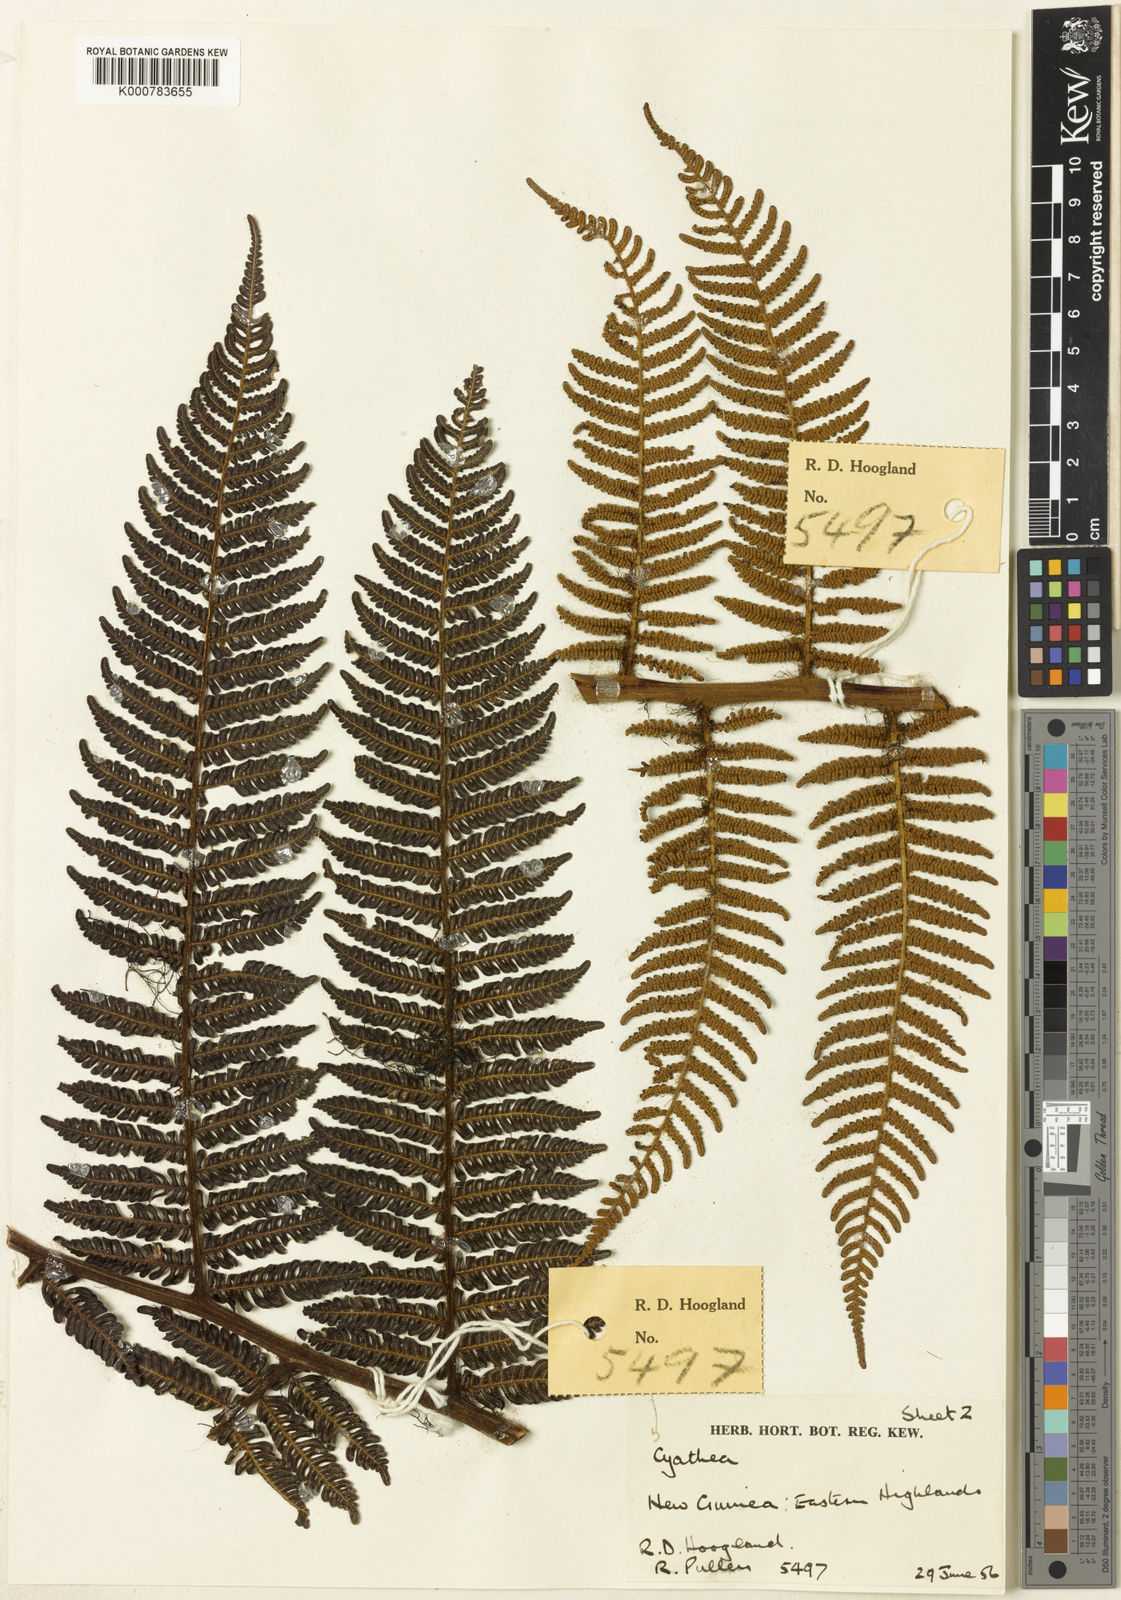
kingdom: Plantae
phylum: Tracheophyta
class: Polypodiopsida
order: Cyatheales
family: Cyatheaceae
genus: Alsophila
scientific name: Alsophila cucullifera
